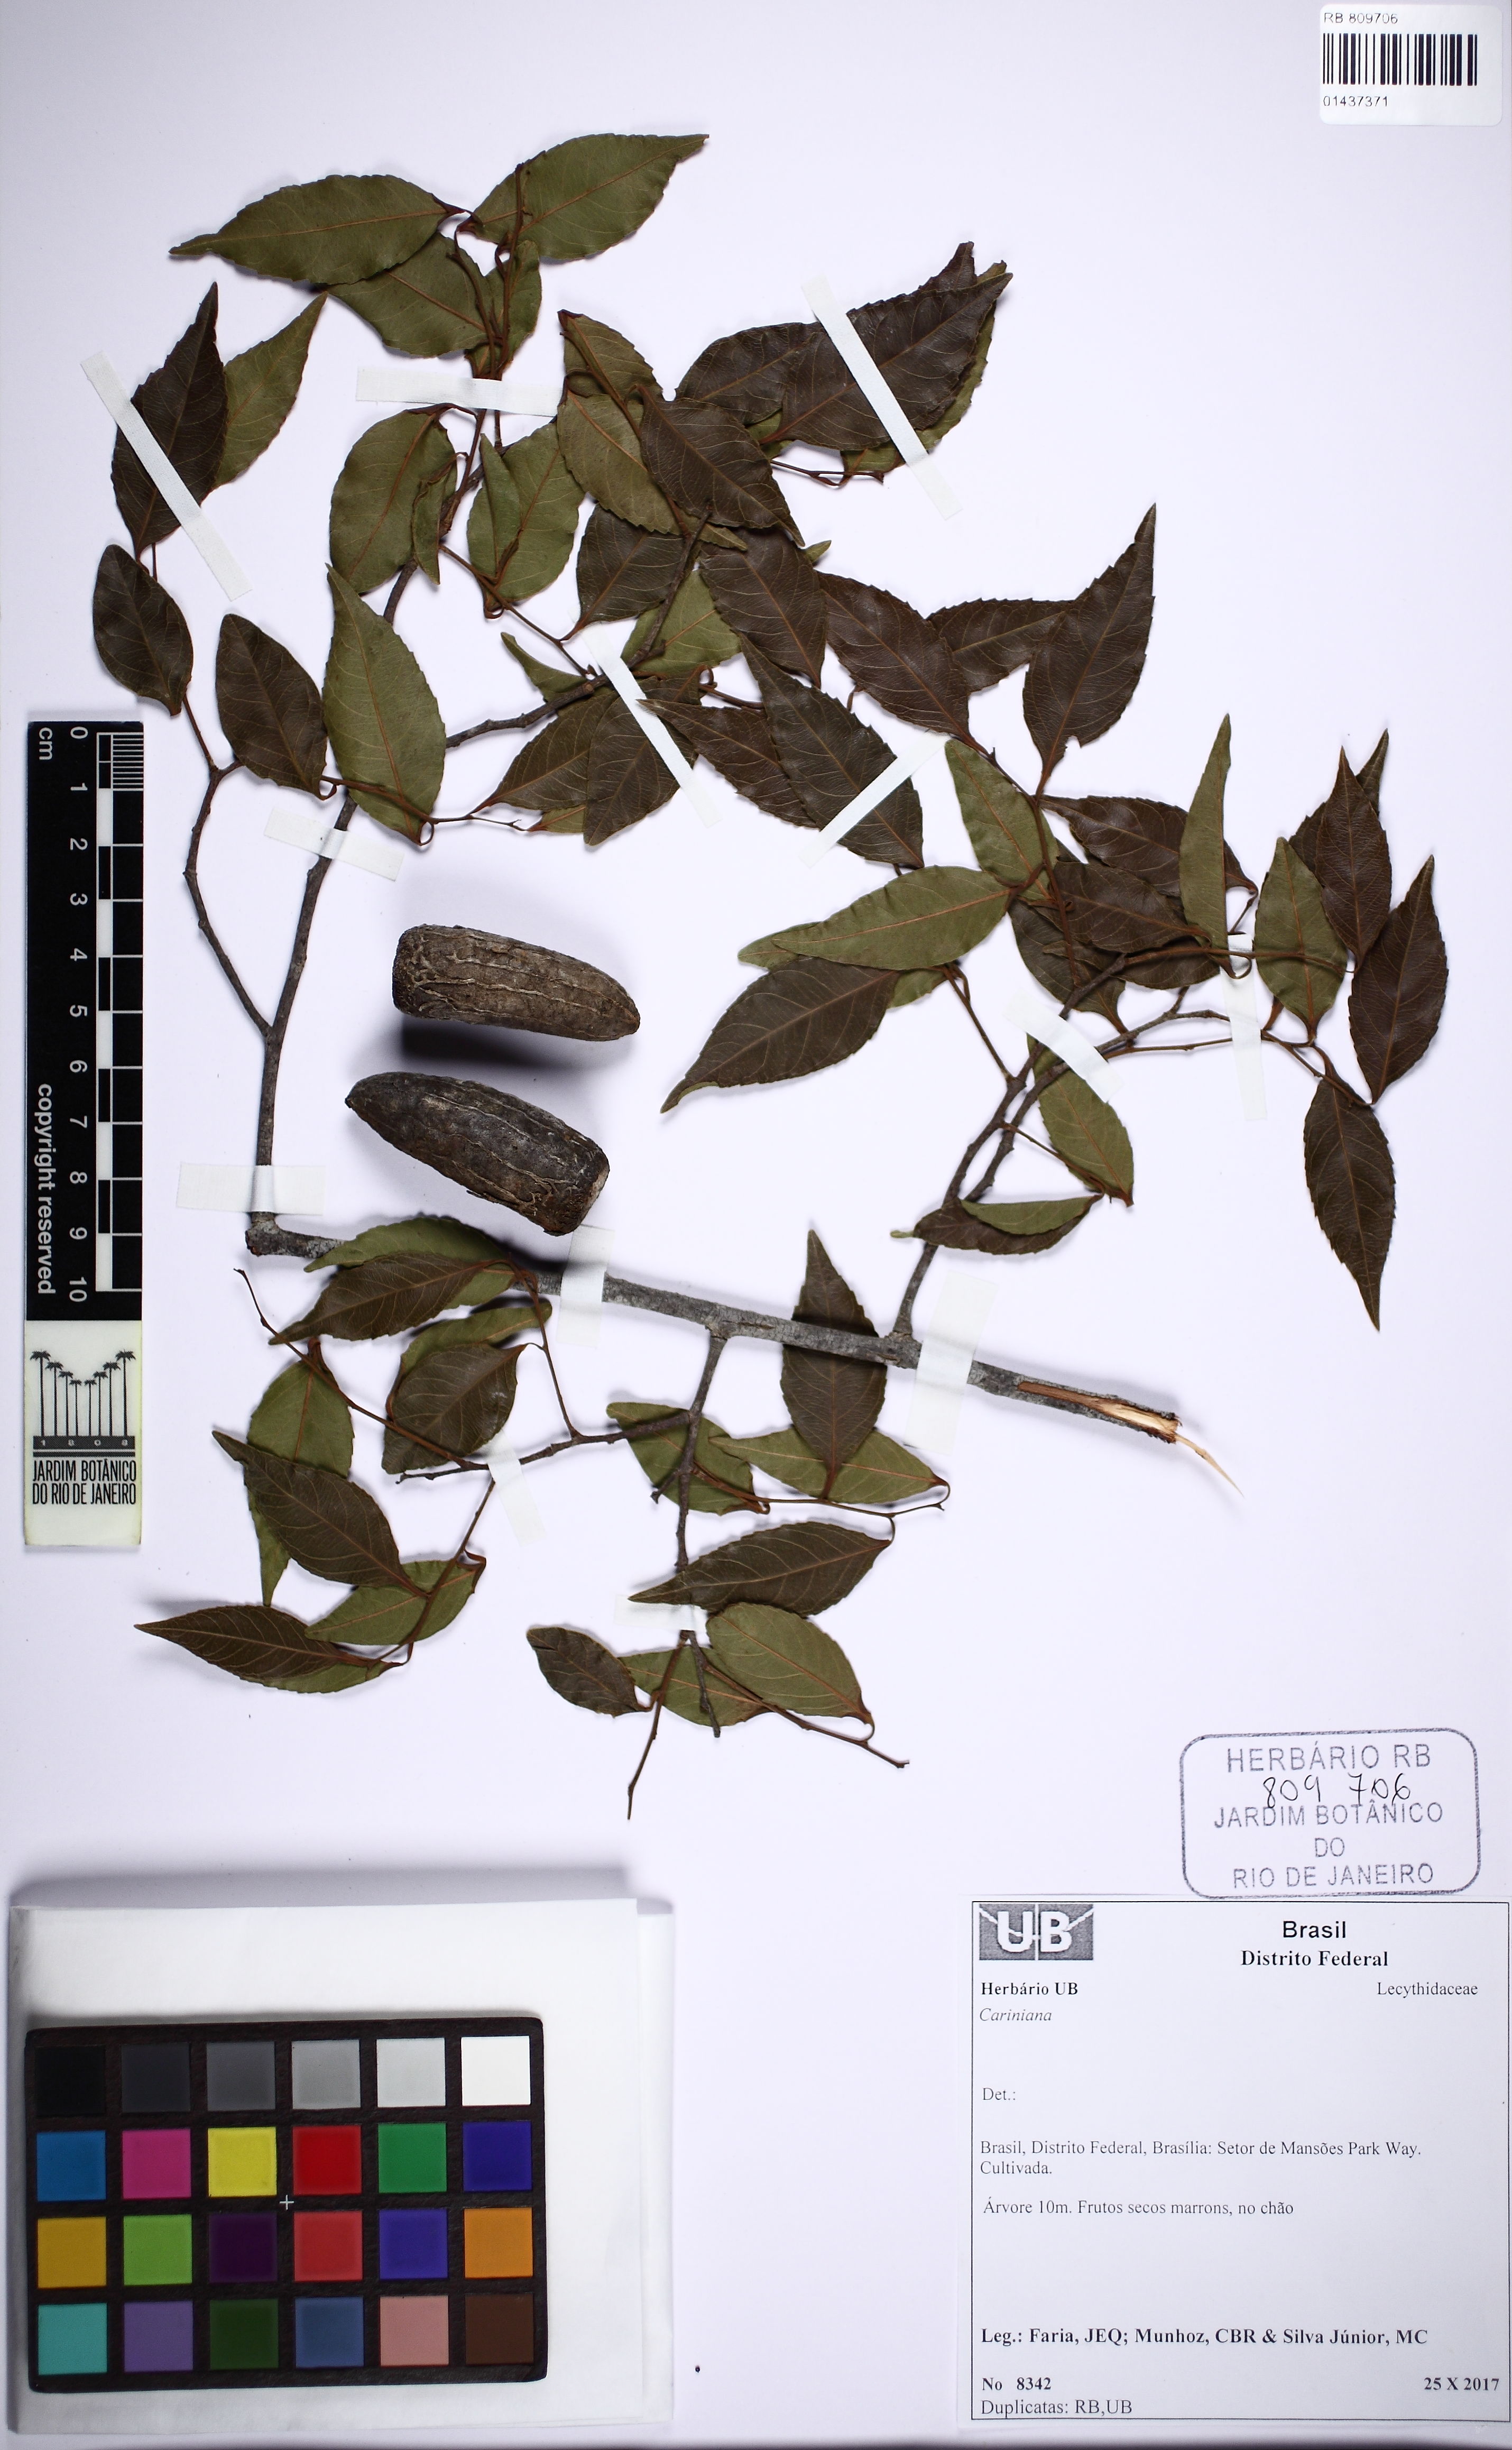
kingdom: Plantae
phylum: Tracheophyta
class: Magnoliopsida
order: Ericales
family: Lecythidaceae
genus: Cariniana
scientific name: Cariniana
